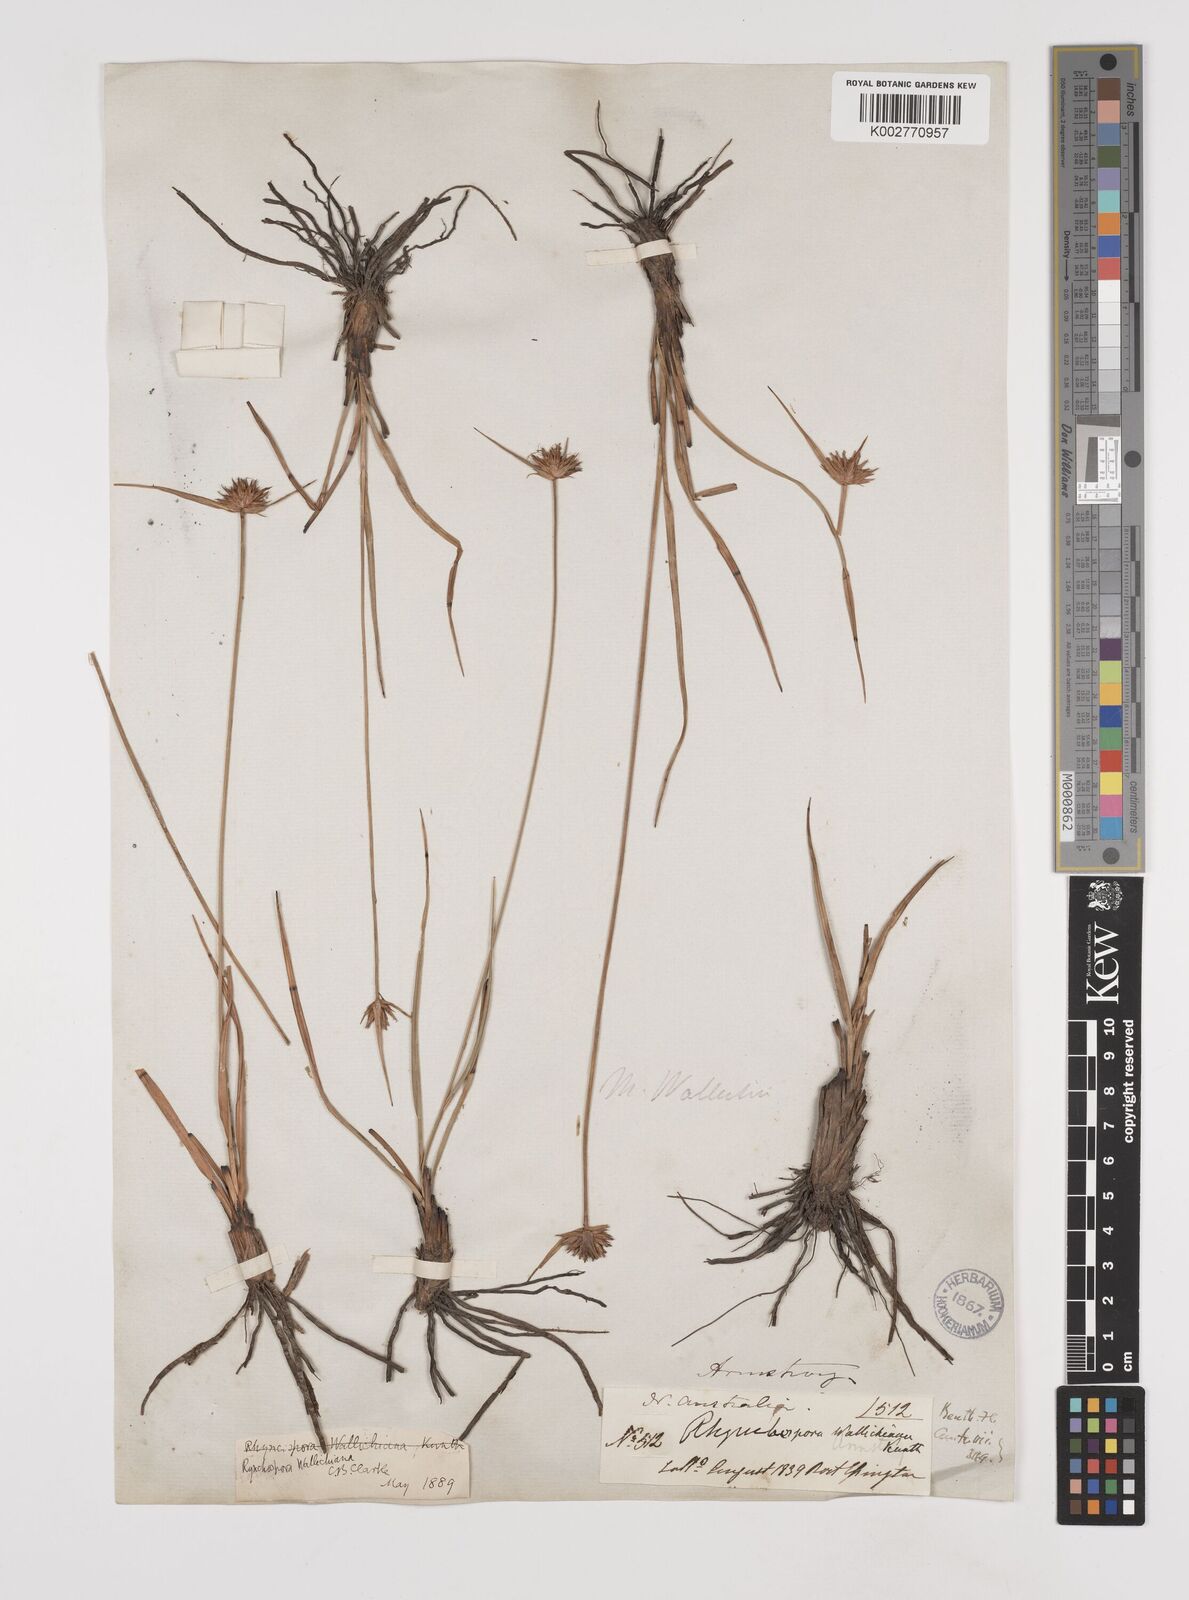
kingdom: Plantae
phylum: Tracheophyta
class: Liliopsida
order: Poales
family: Cyperaceae
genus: Rhynchospora
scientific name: Rhynchospora rubra
